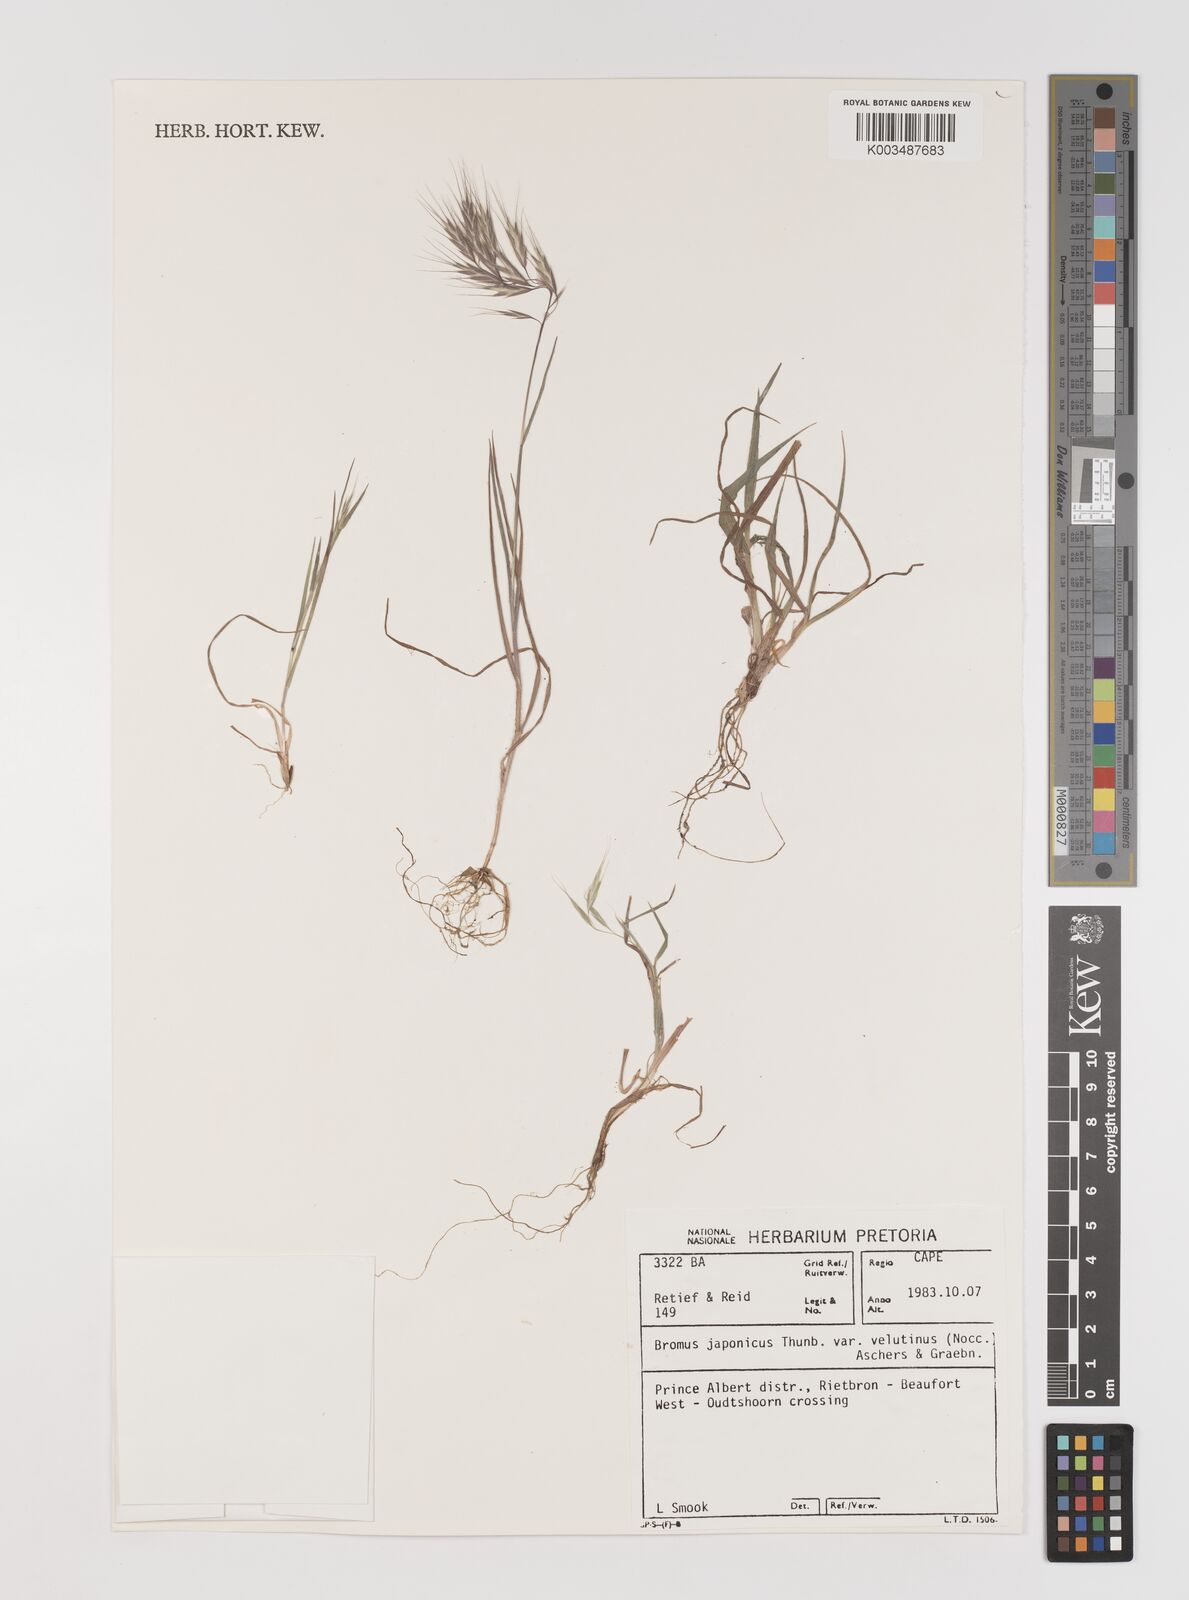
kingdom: Plantae
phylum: Tracheophyta
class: Liliopsida
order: Poales
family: Poaceae
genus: Bromus
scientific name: Bromus japonicus
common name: Japanese brome
